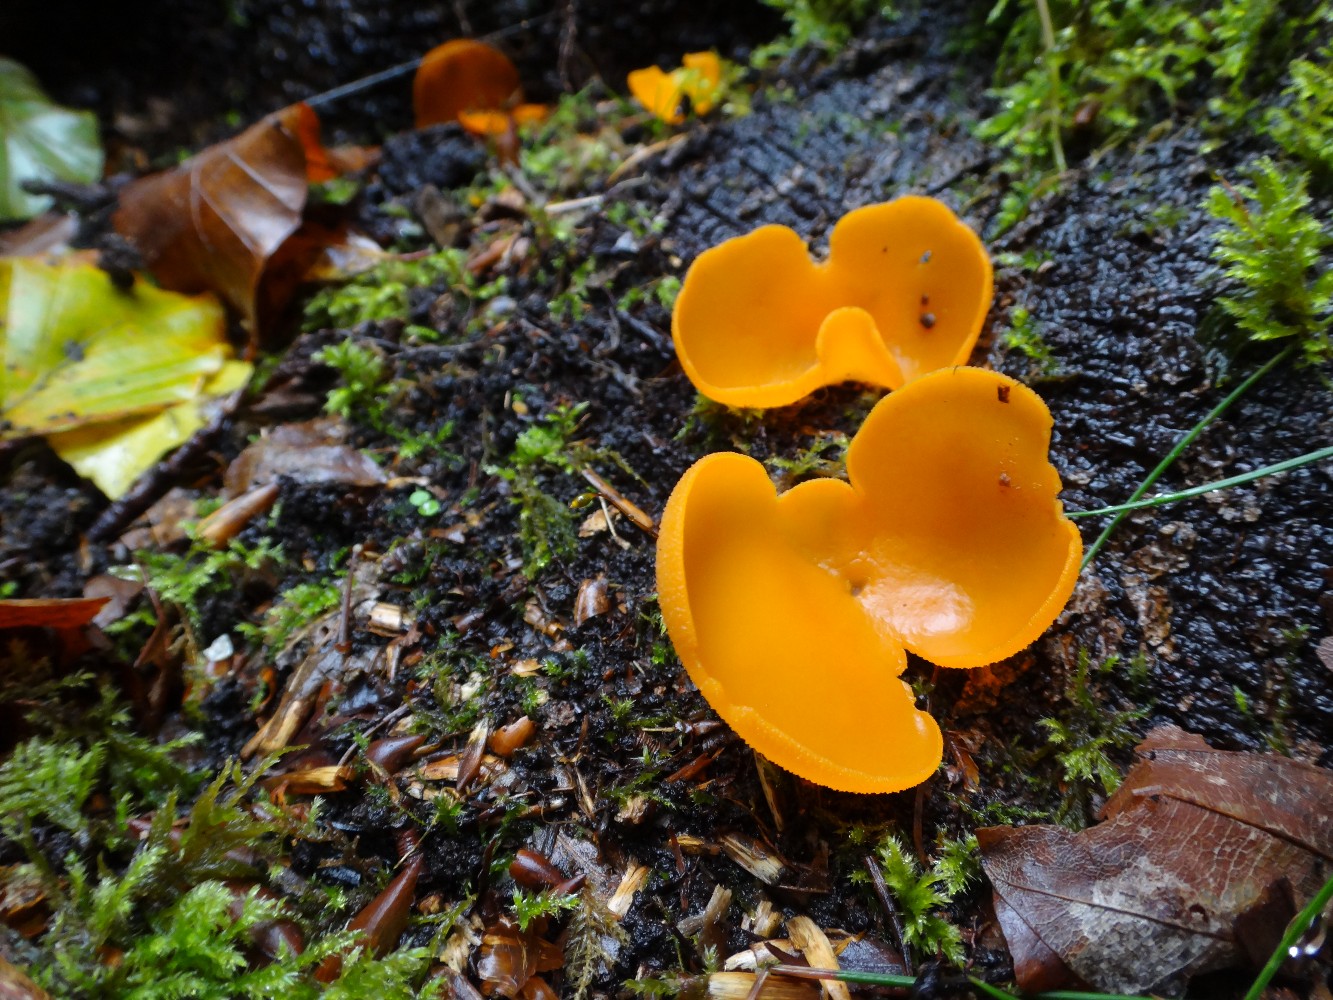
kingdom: Fungi
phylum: Ascomycota
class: Pezizomycetes
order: Pezizales
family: Pyronemataceae
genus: Aleuria
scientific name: Aleuria aurantia
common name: almindelig orangebæger
